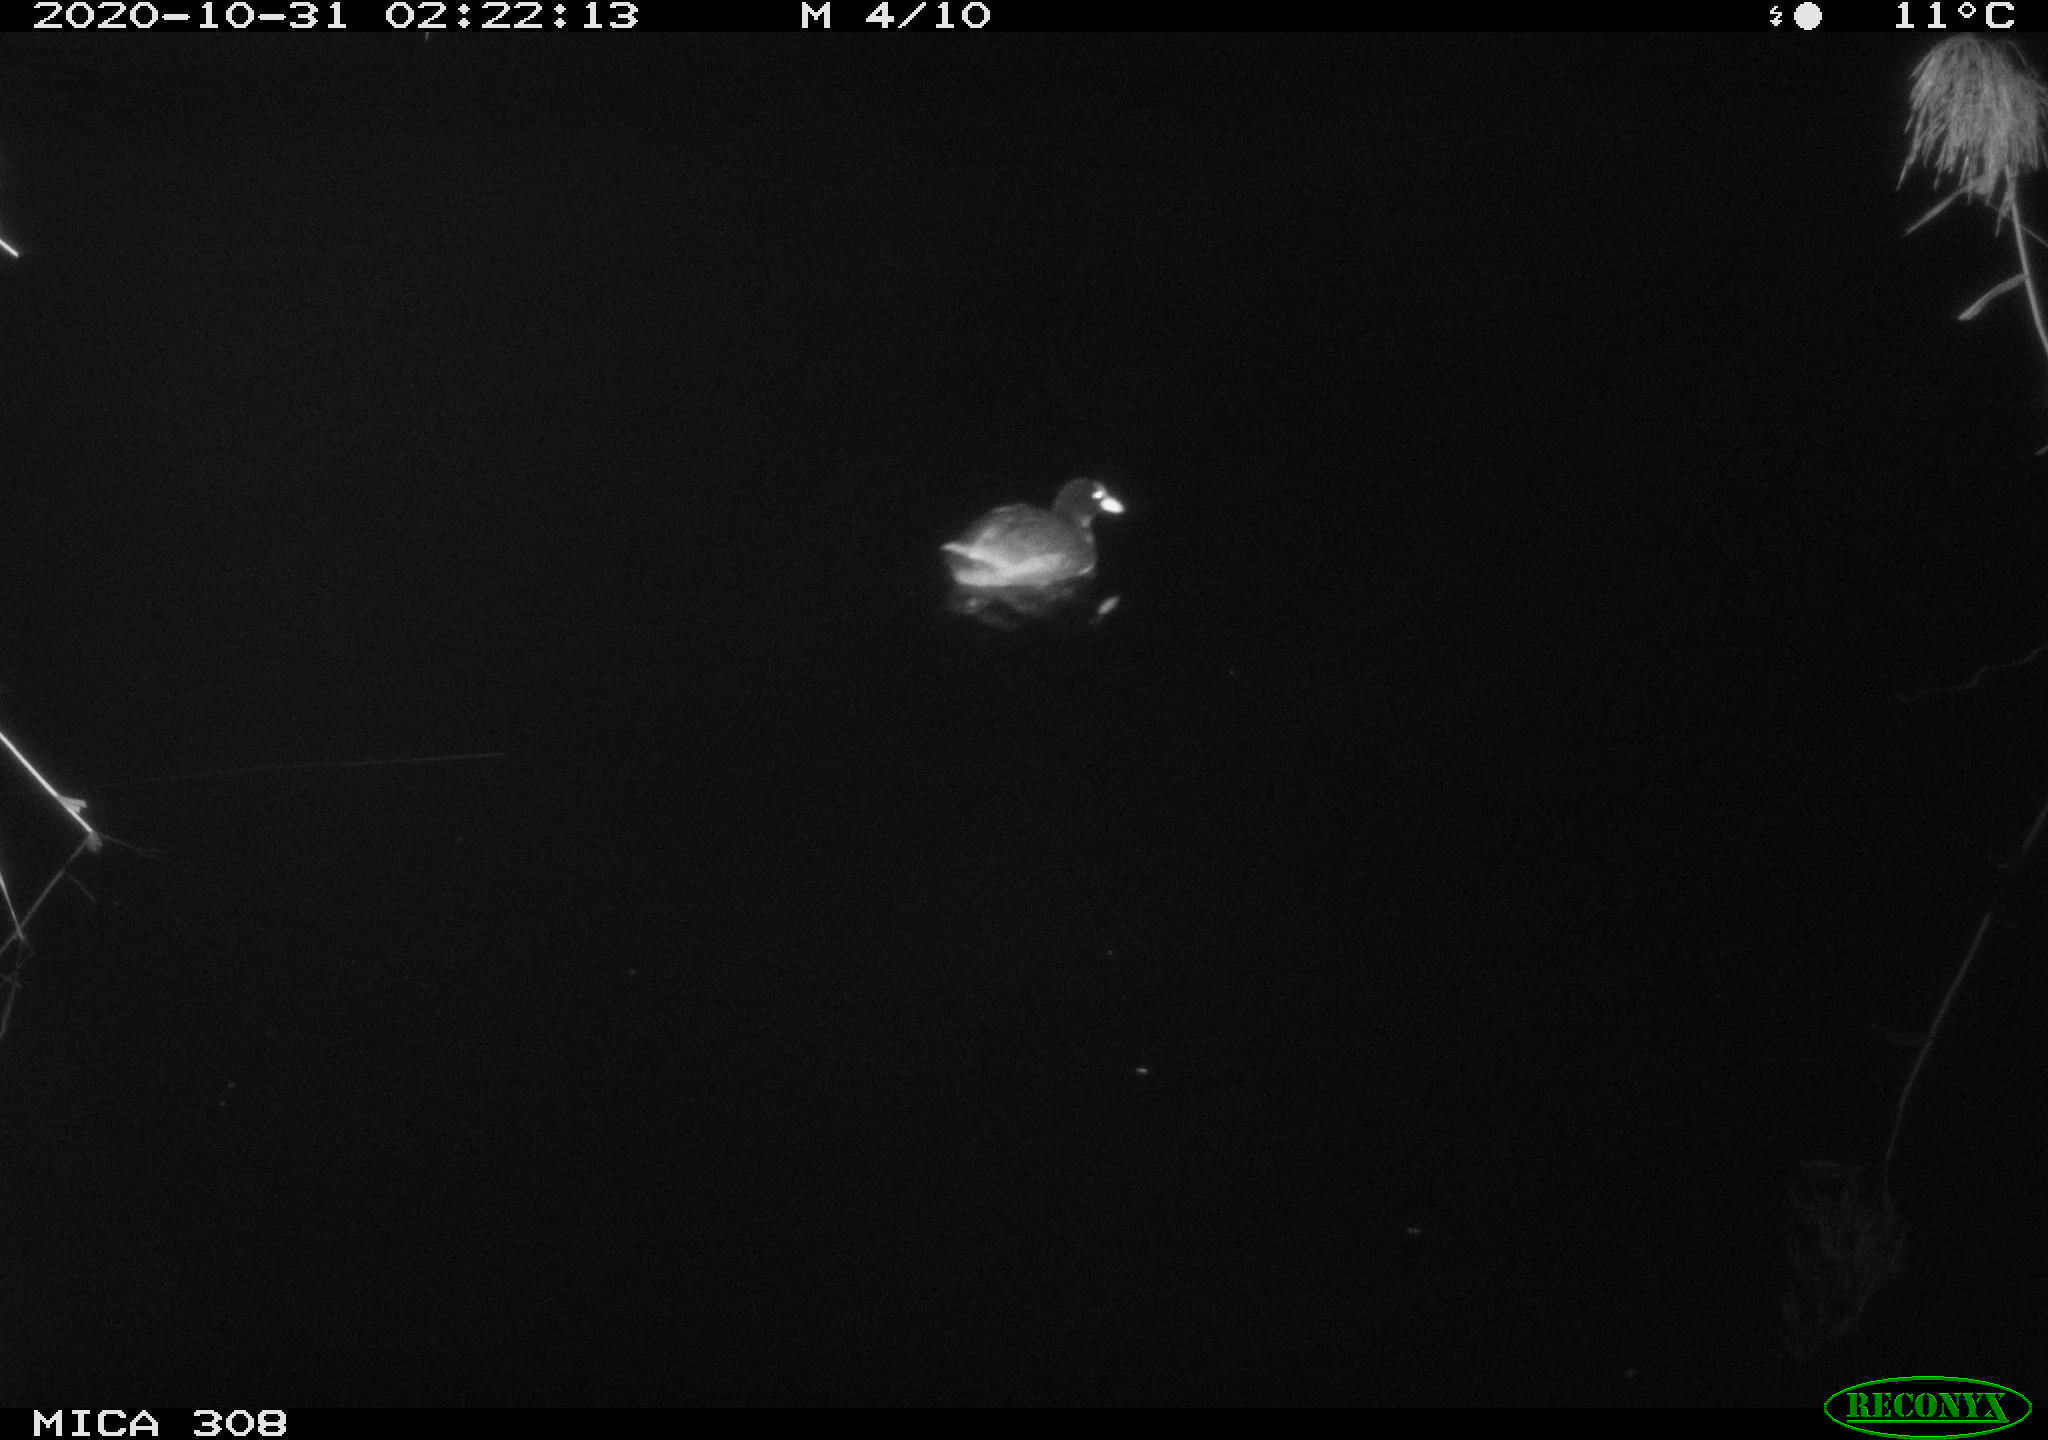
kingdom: Animalia
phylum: Chordata
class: Aves
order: Gruiformes
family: Rallidae
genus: Fulica
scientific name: Fulica atra
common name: Eurasian coot
